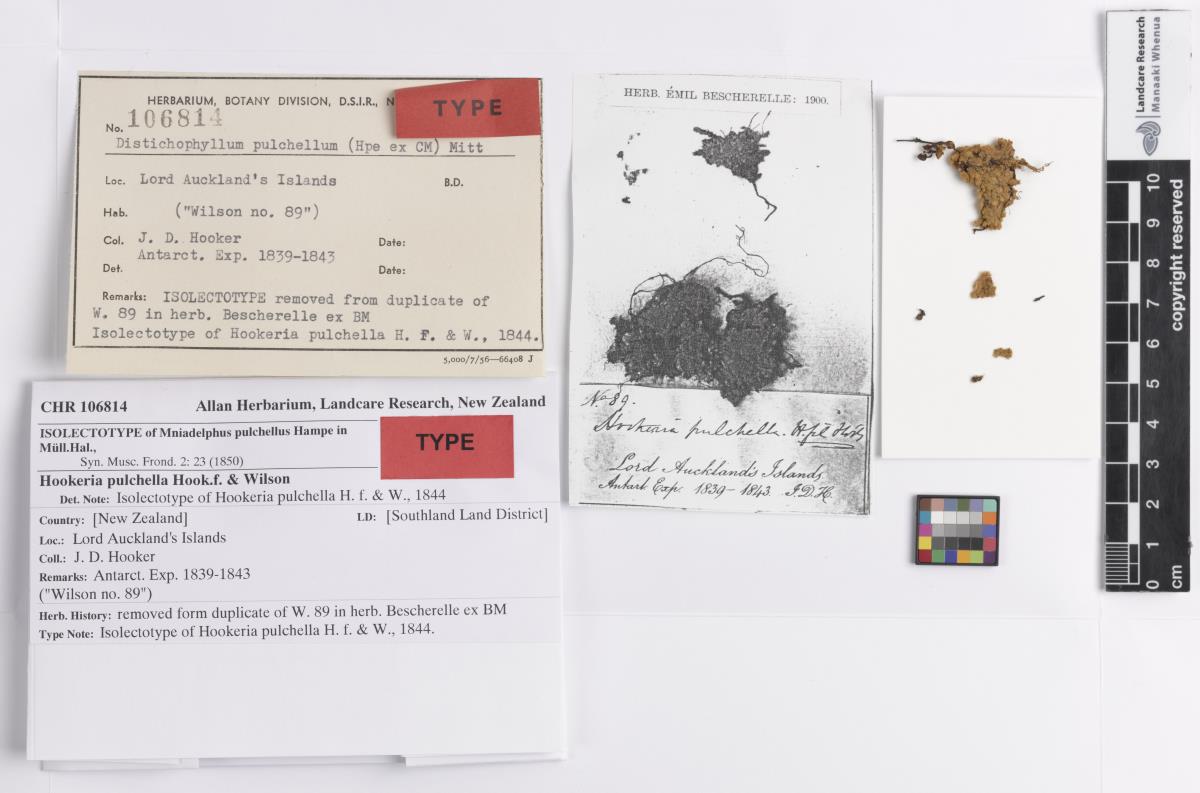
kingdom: Plantae
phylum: Bryophyta
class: Bryopsida
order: Hookeriales
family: Daltoniaceae
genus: Distichophyllum
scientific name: Distichophyllum pulchellum
